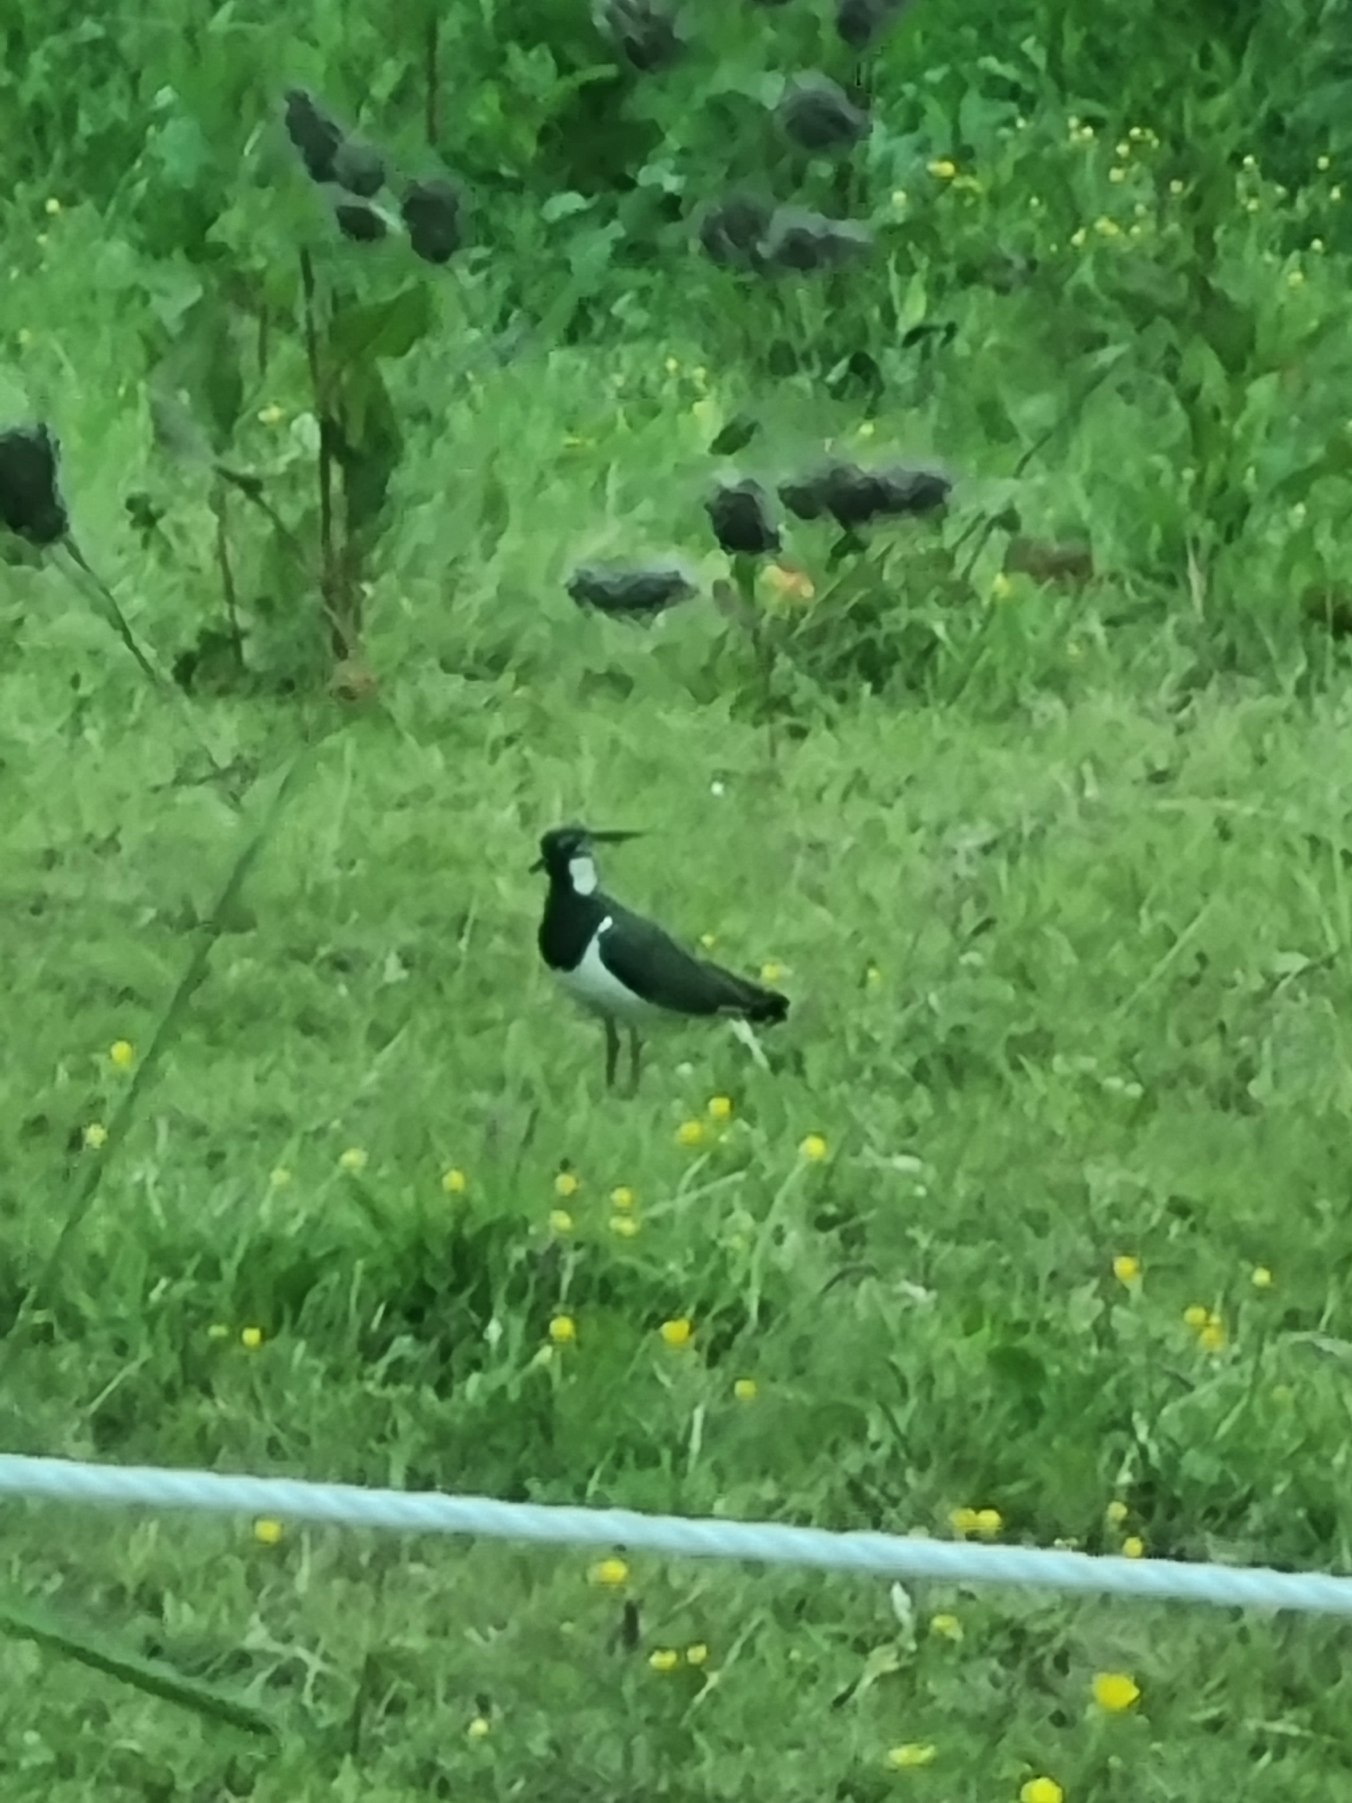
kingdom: Animalia
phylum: Chordata
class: Aves
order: Charadriiformes
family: Charadriidae
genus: Vanellus
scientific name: Vanellus vanellus
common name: Vibe
